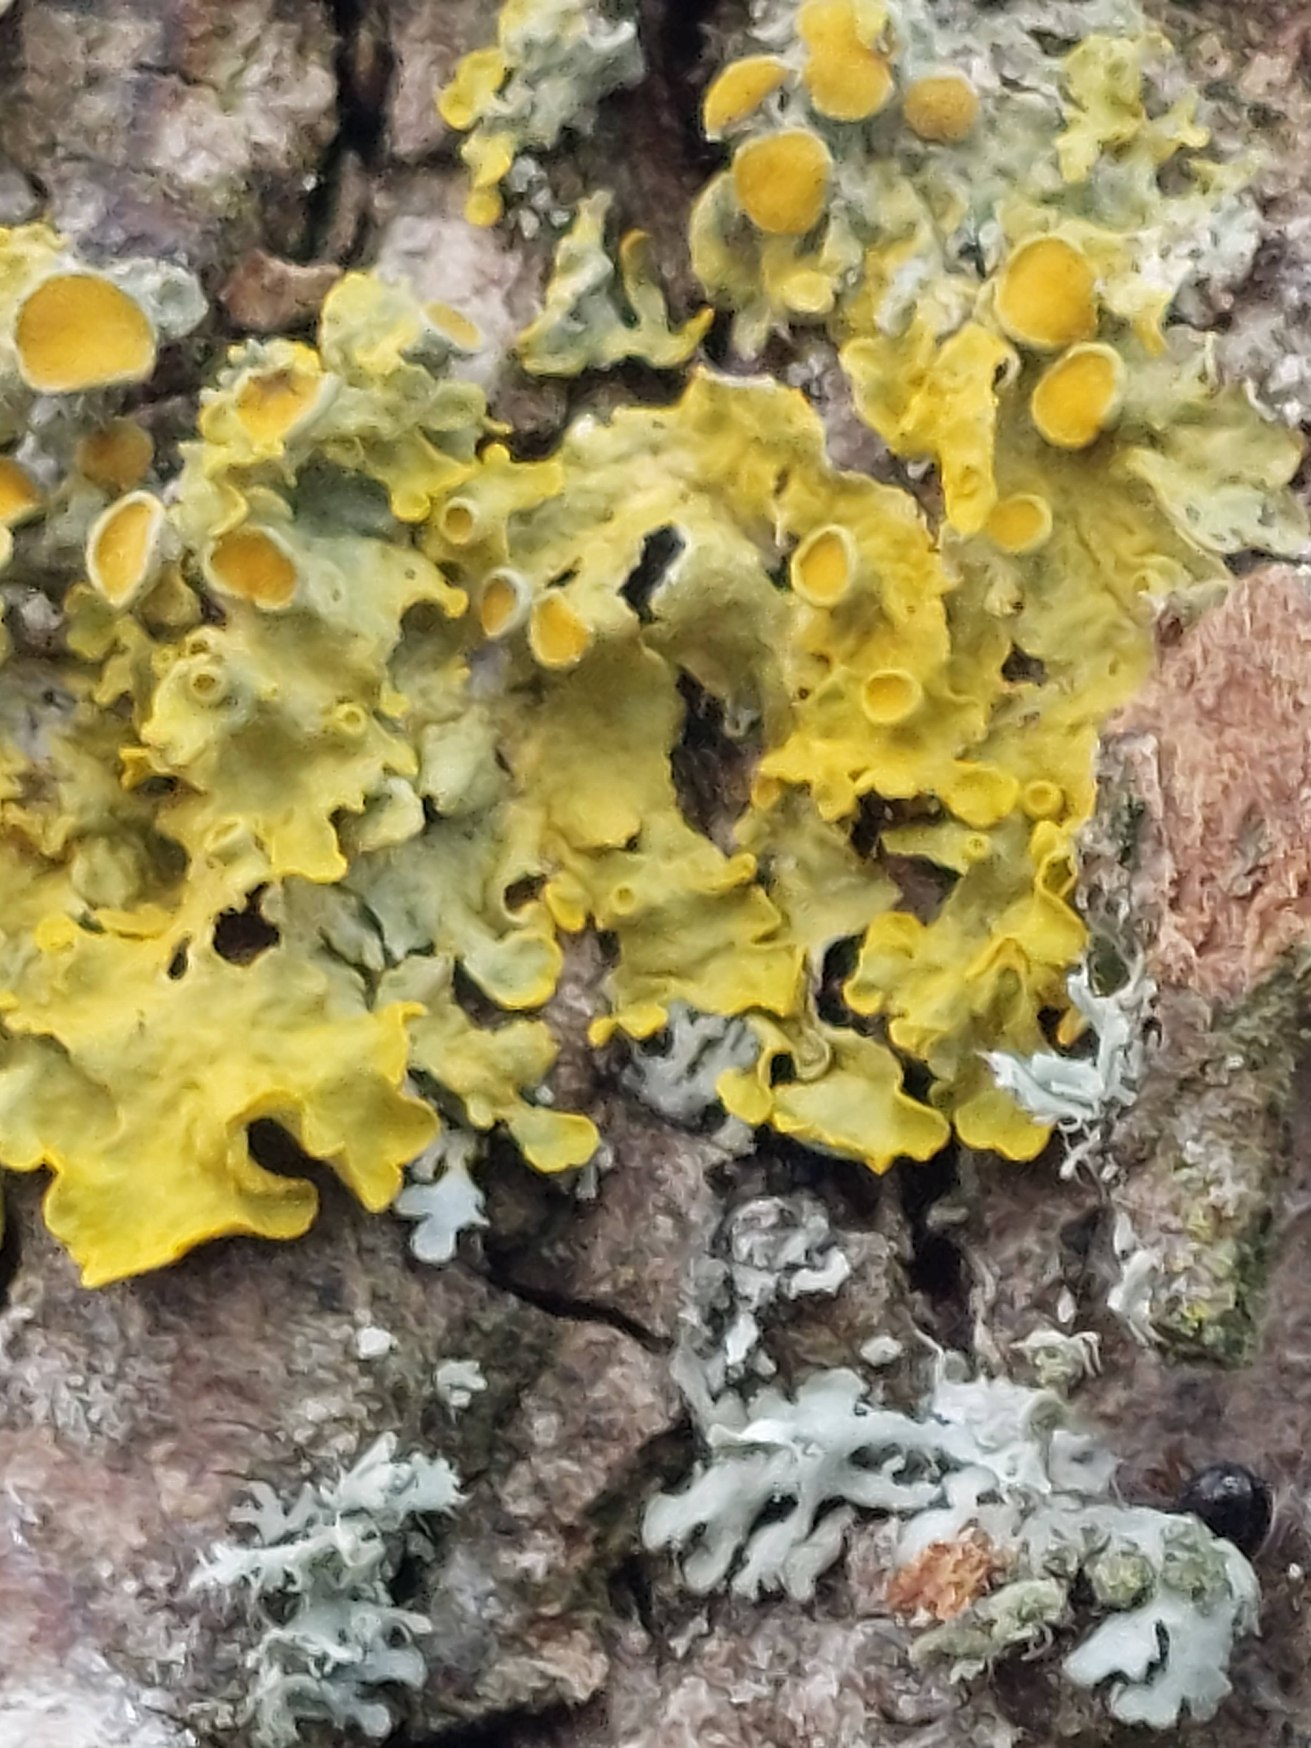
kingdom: Fungi
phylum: Ascomycota
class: Lecanoromycetes
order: Teloschistales
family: Teloschistaceae
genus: Xanthoria
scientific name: Xanthoria parietina
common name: Almindelig væggelav
